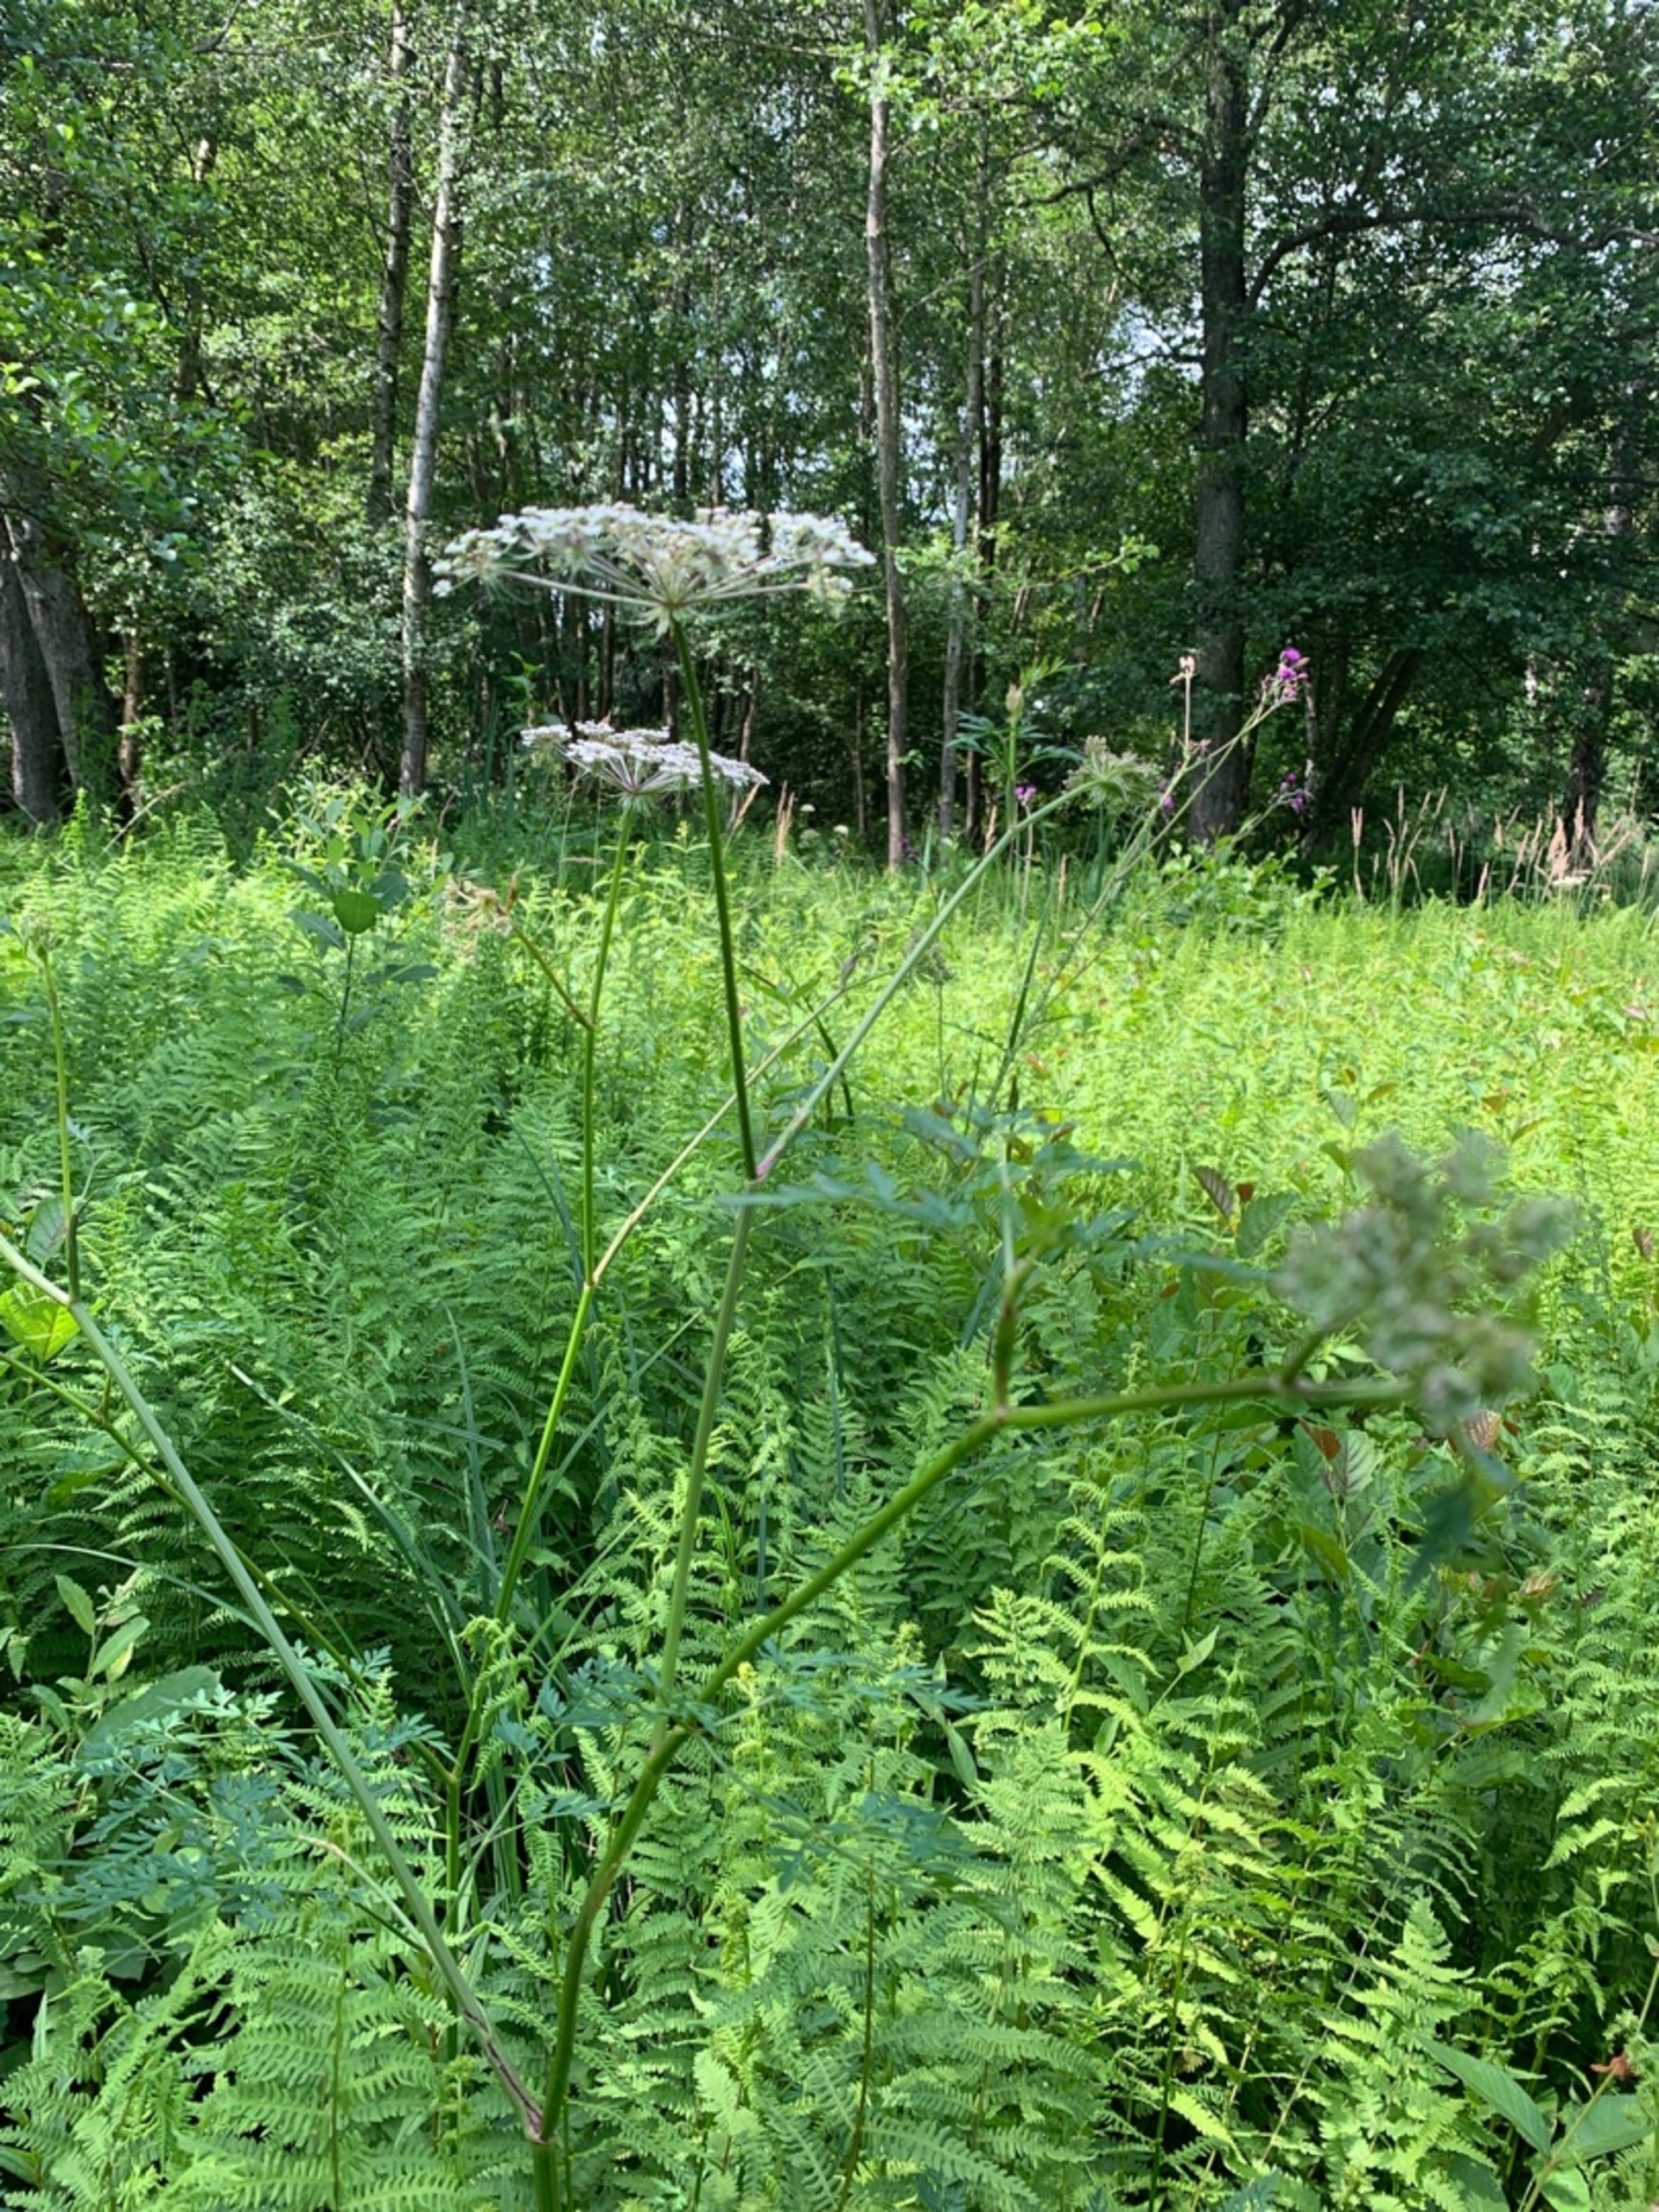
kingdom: Plantae
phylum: Tracheophyta
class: Magnoliopsida
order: Apiales
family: Apiaceae
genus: Thysselinum
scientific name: Thysselinum palustre
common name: Kær-svovlrod
